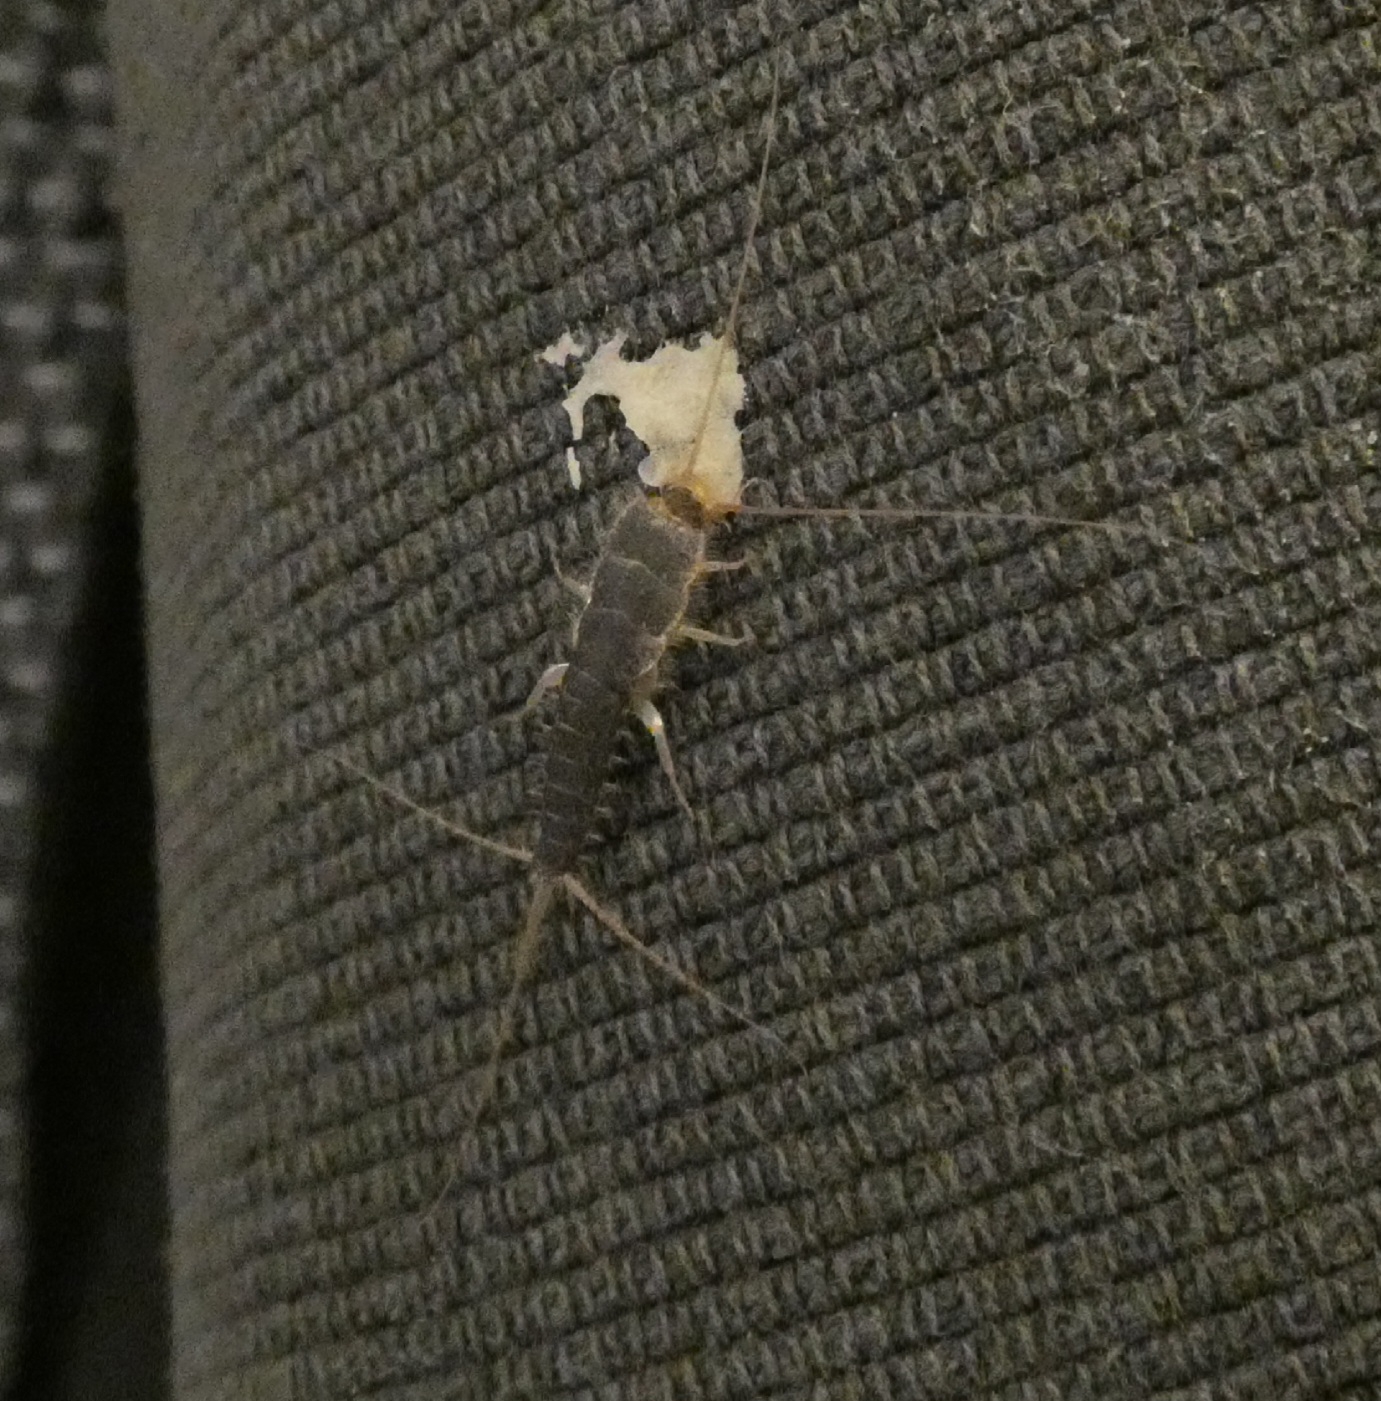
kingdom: Animalia
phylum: Arthropoda
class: Insecta
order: Zygentoma
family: Lepismatidae
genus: Ctenolepisma
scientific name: Ctenolepisma longicaudatum
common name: Skægget sølvkræ
